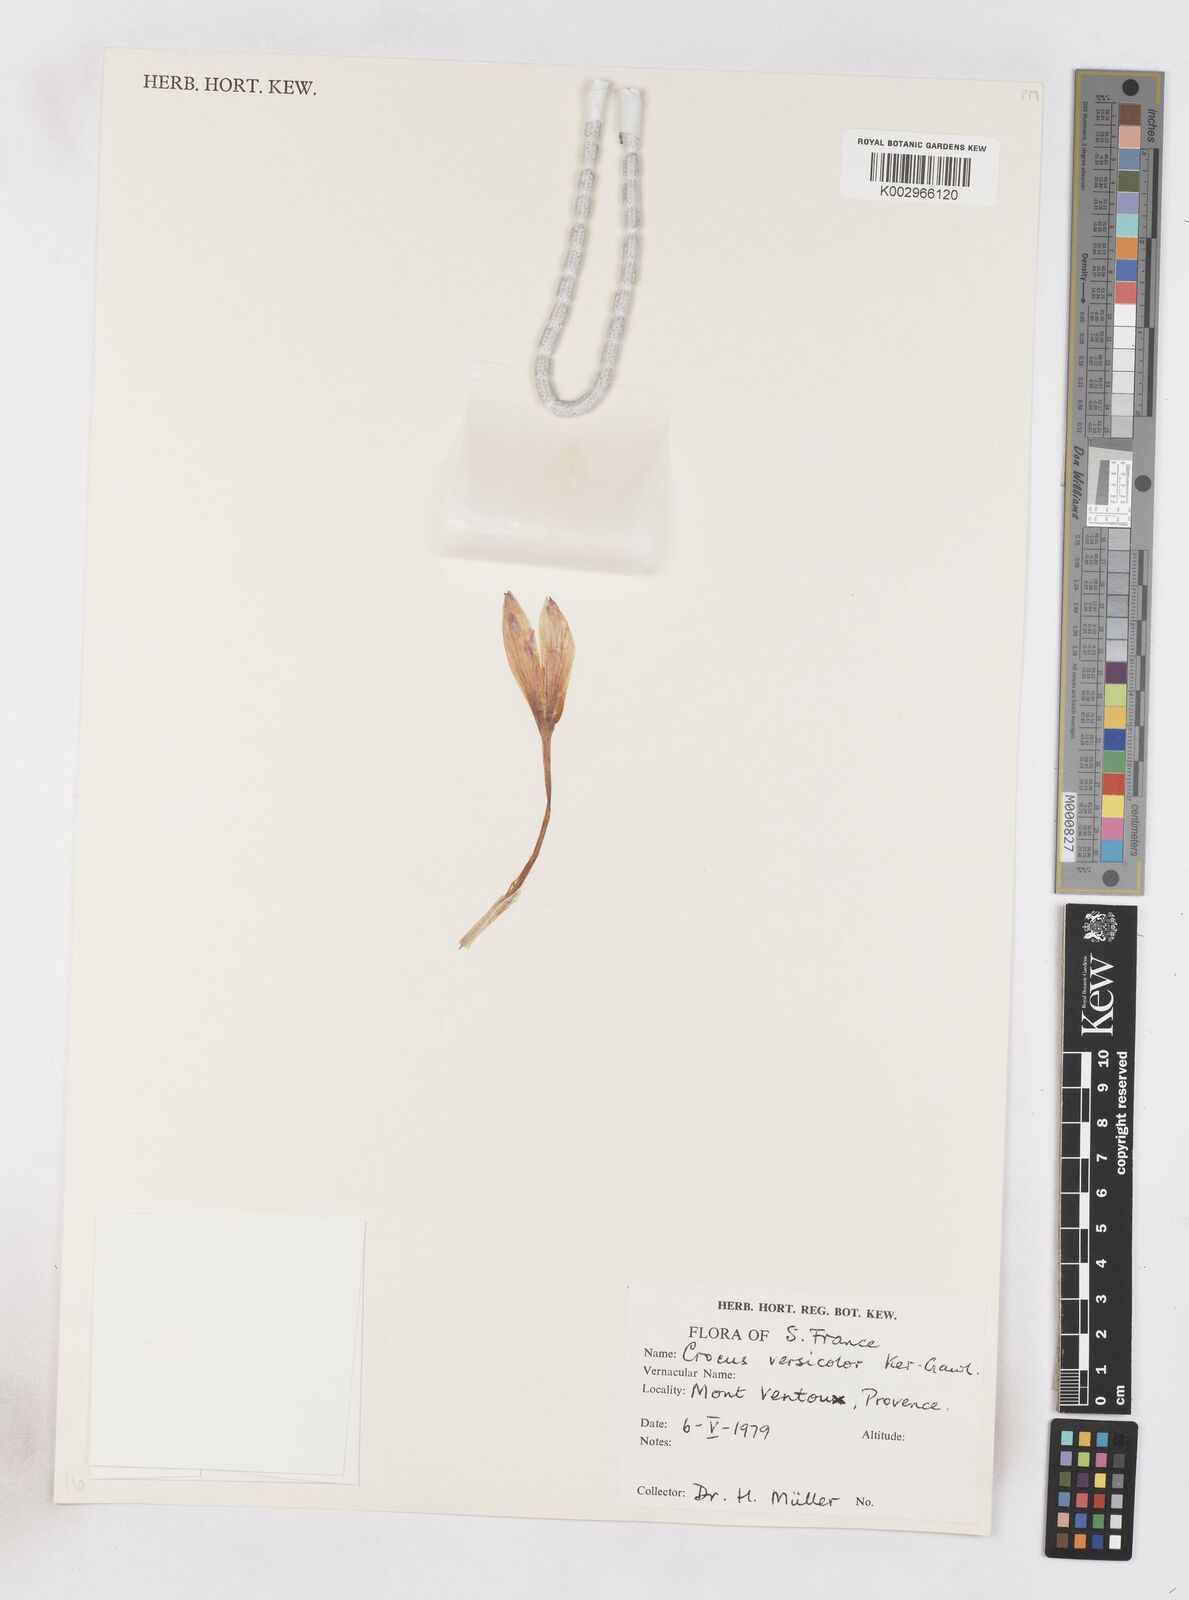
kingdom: Plantae
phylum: Tracheophyta
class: Liliopsida
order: Asparagales
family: Iridaceae
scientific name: Iridaceae
